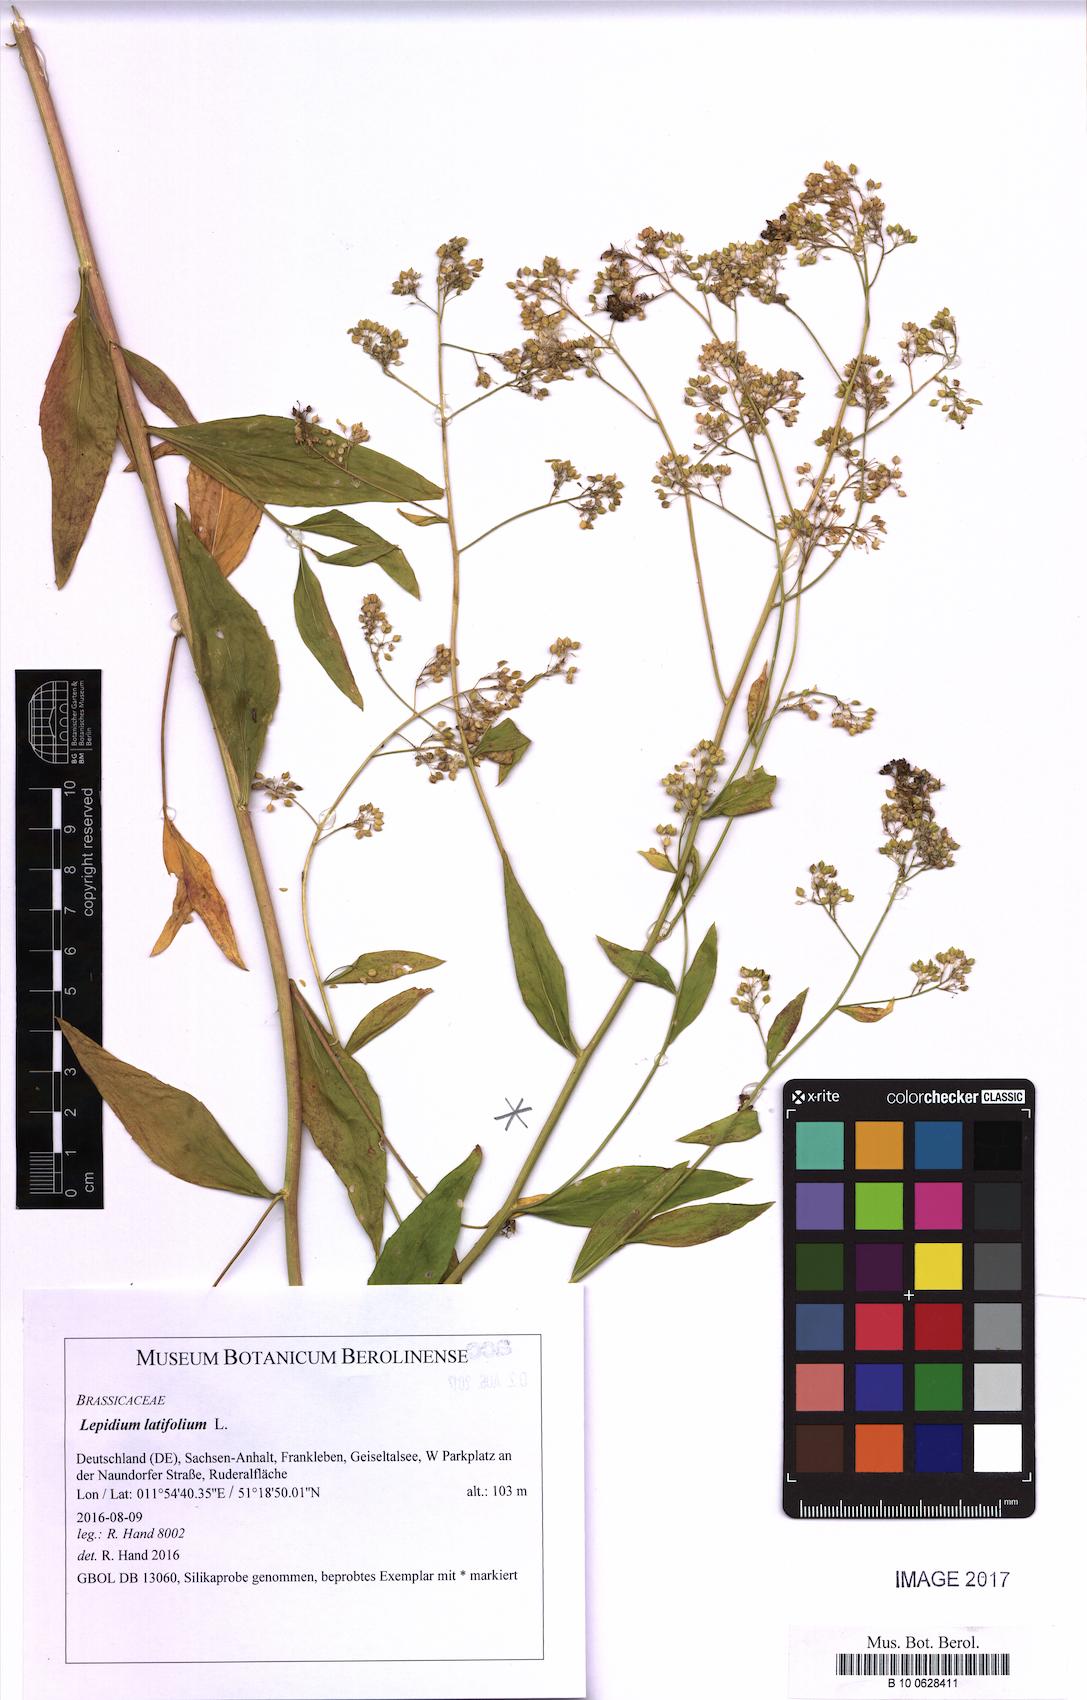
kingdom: Plantae
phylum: Tracheophyta
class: Magnoliopsida
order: Brassicales
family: Brassicaceae
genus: Lepidium
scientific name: Lepidium latifolium
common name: Dittander
